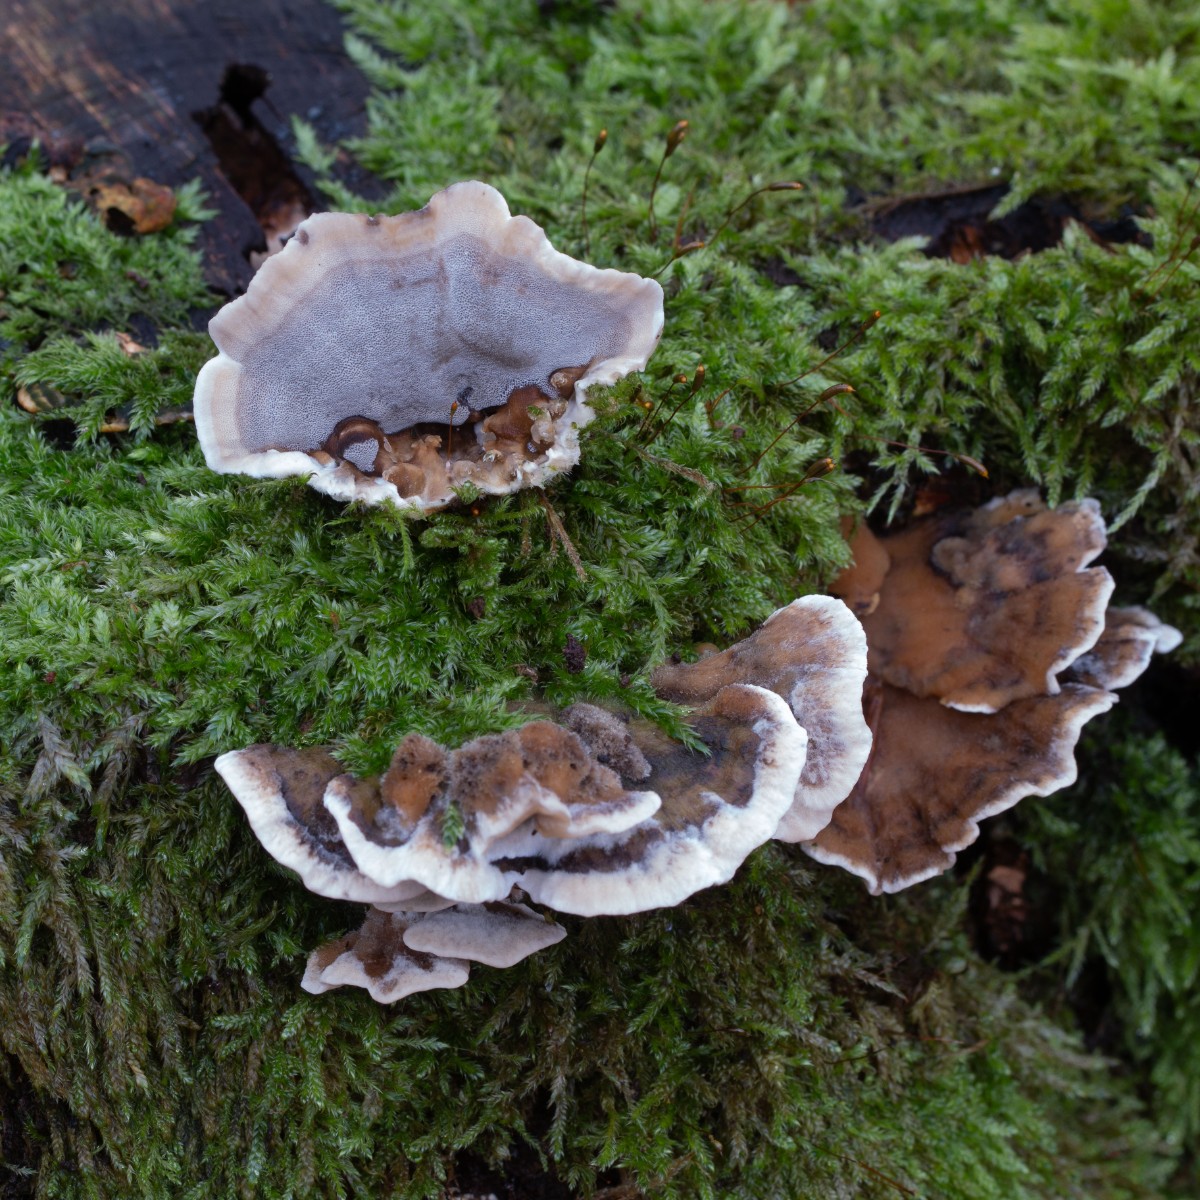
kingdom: Fungi
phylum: Basidiomycota
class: Agaricomycetes
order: Polyporales
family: Phanerochaetaceae
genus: Bjerkandera
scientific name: Bjerkandera adusta
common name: sveden sodporesvamp
